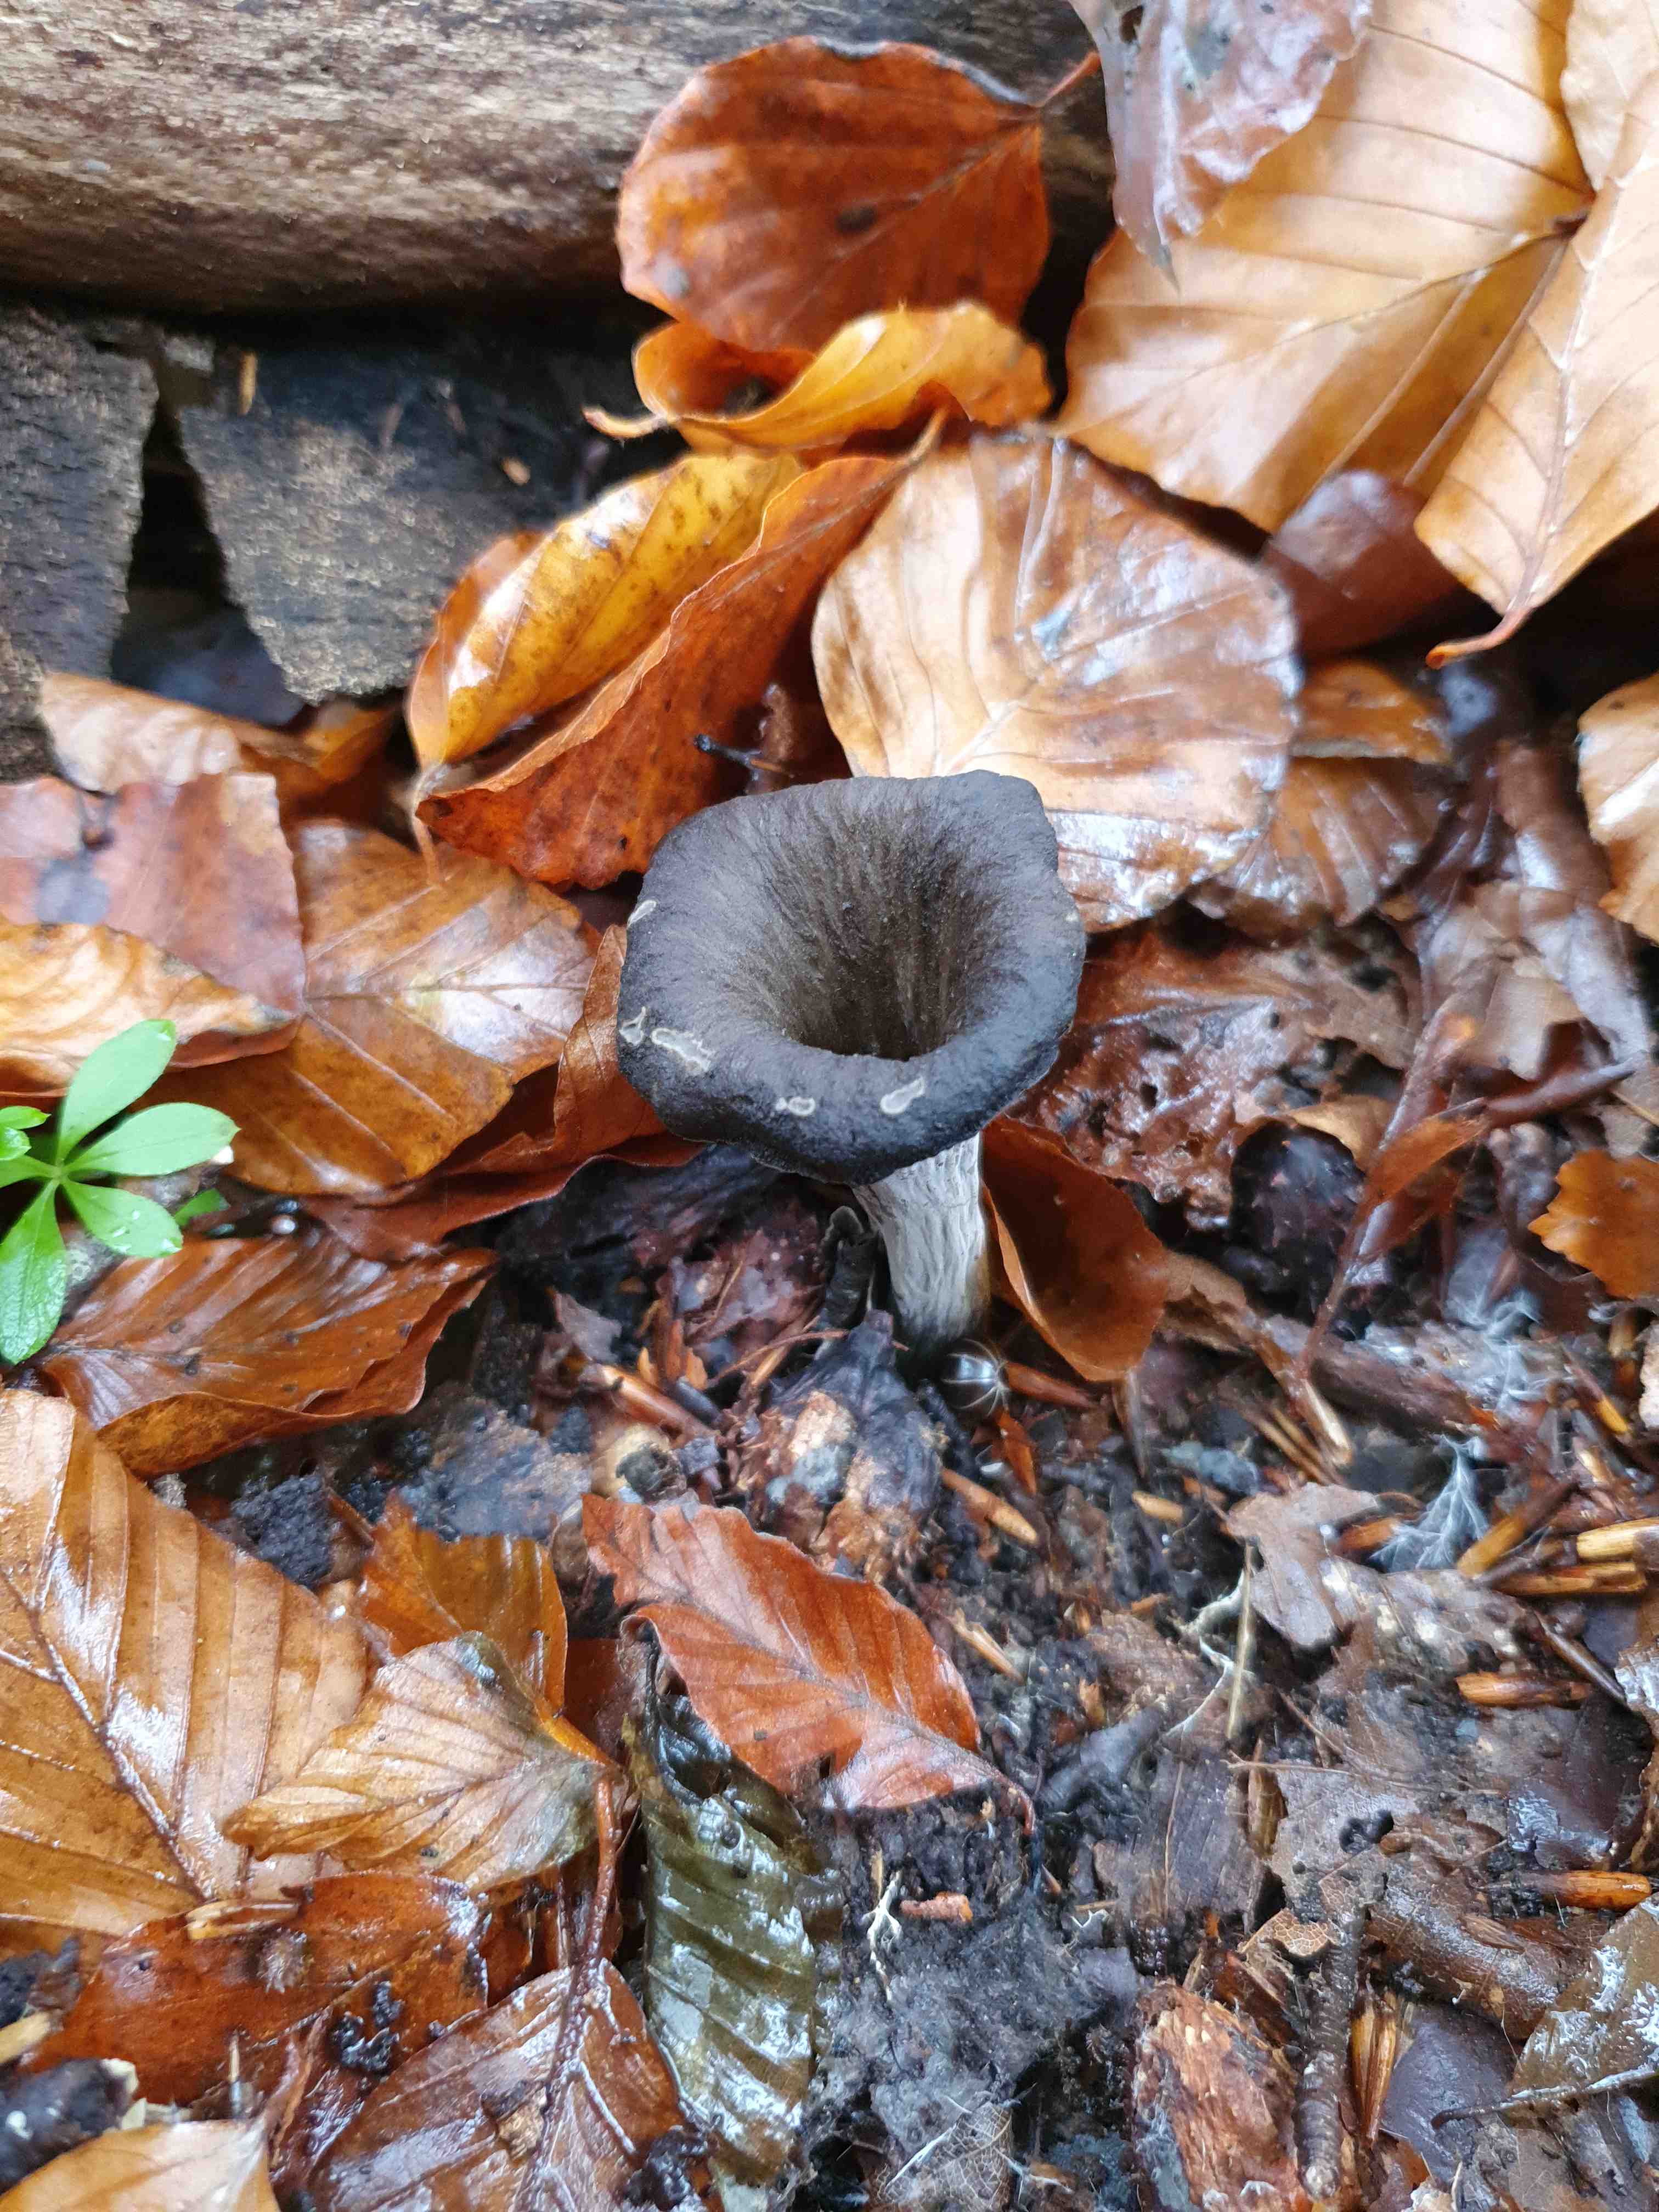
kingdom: Fungi
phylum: Basidiomycota
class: Agaricomycetes
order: Cantharellales
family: Hydnaceae
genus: Craterellus
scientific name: Craterellus cornucopioides
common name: trompetsvamp
